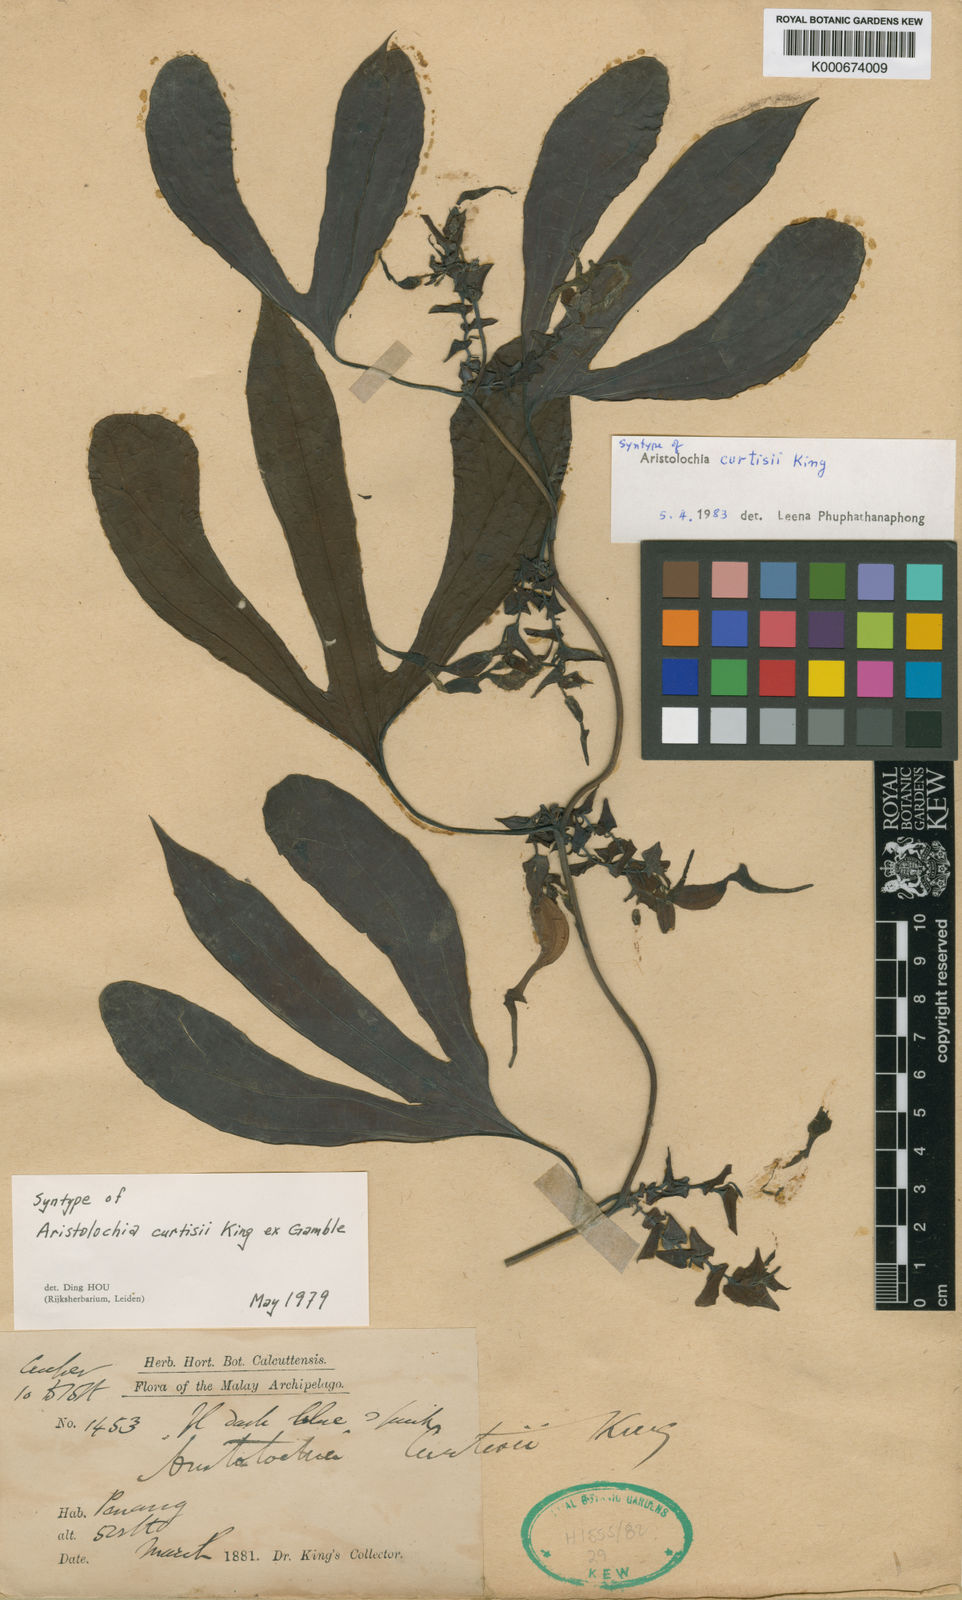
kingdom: Plantae
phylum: Tracheophyta
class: Magnoliopsida
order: Piperales
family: Aristolochiaceae
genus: Aristolochia
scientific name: Aristolochia
